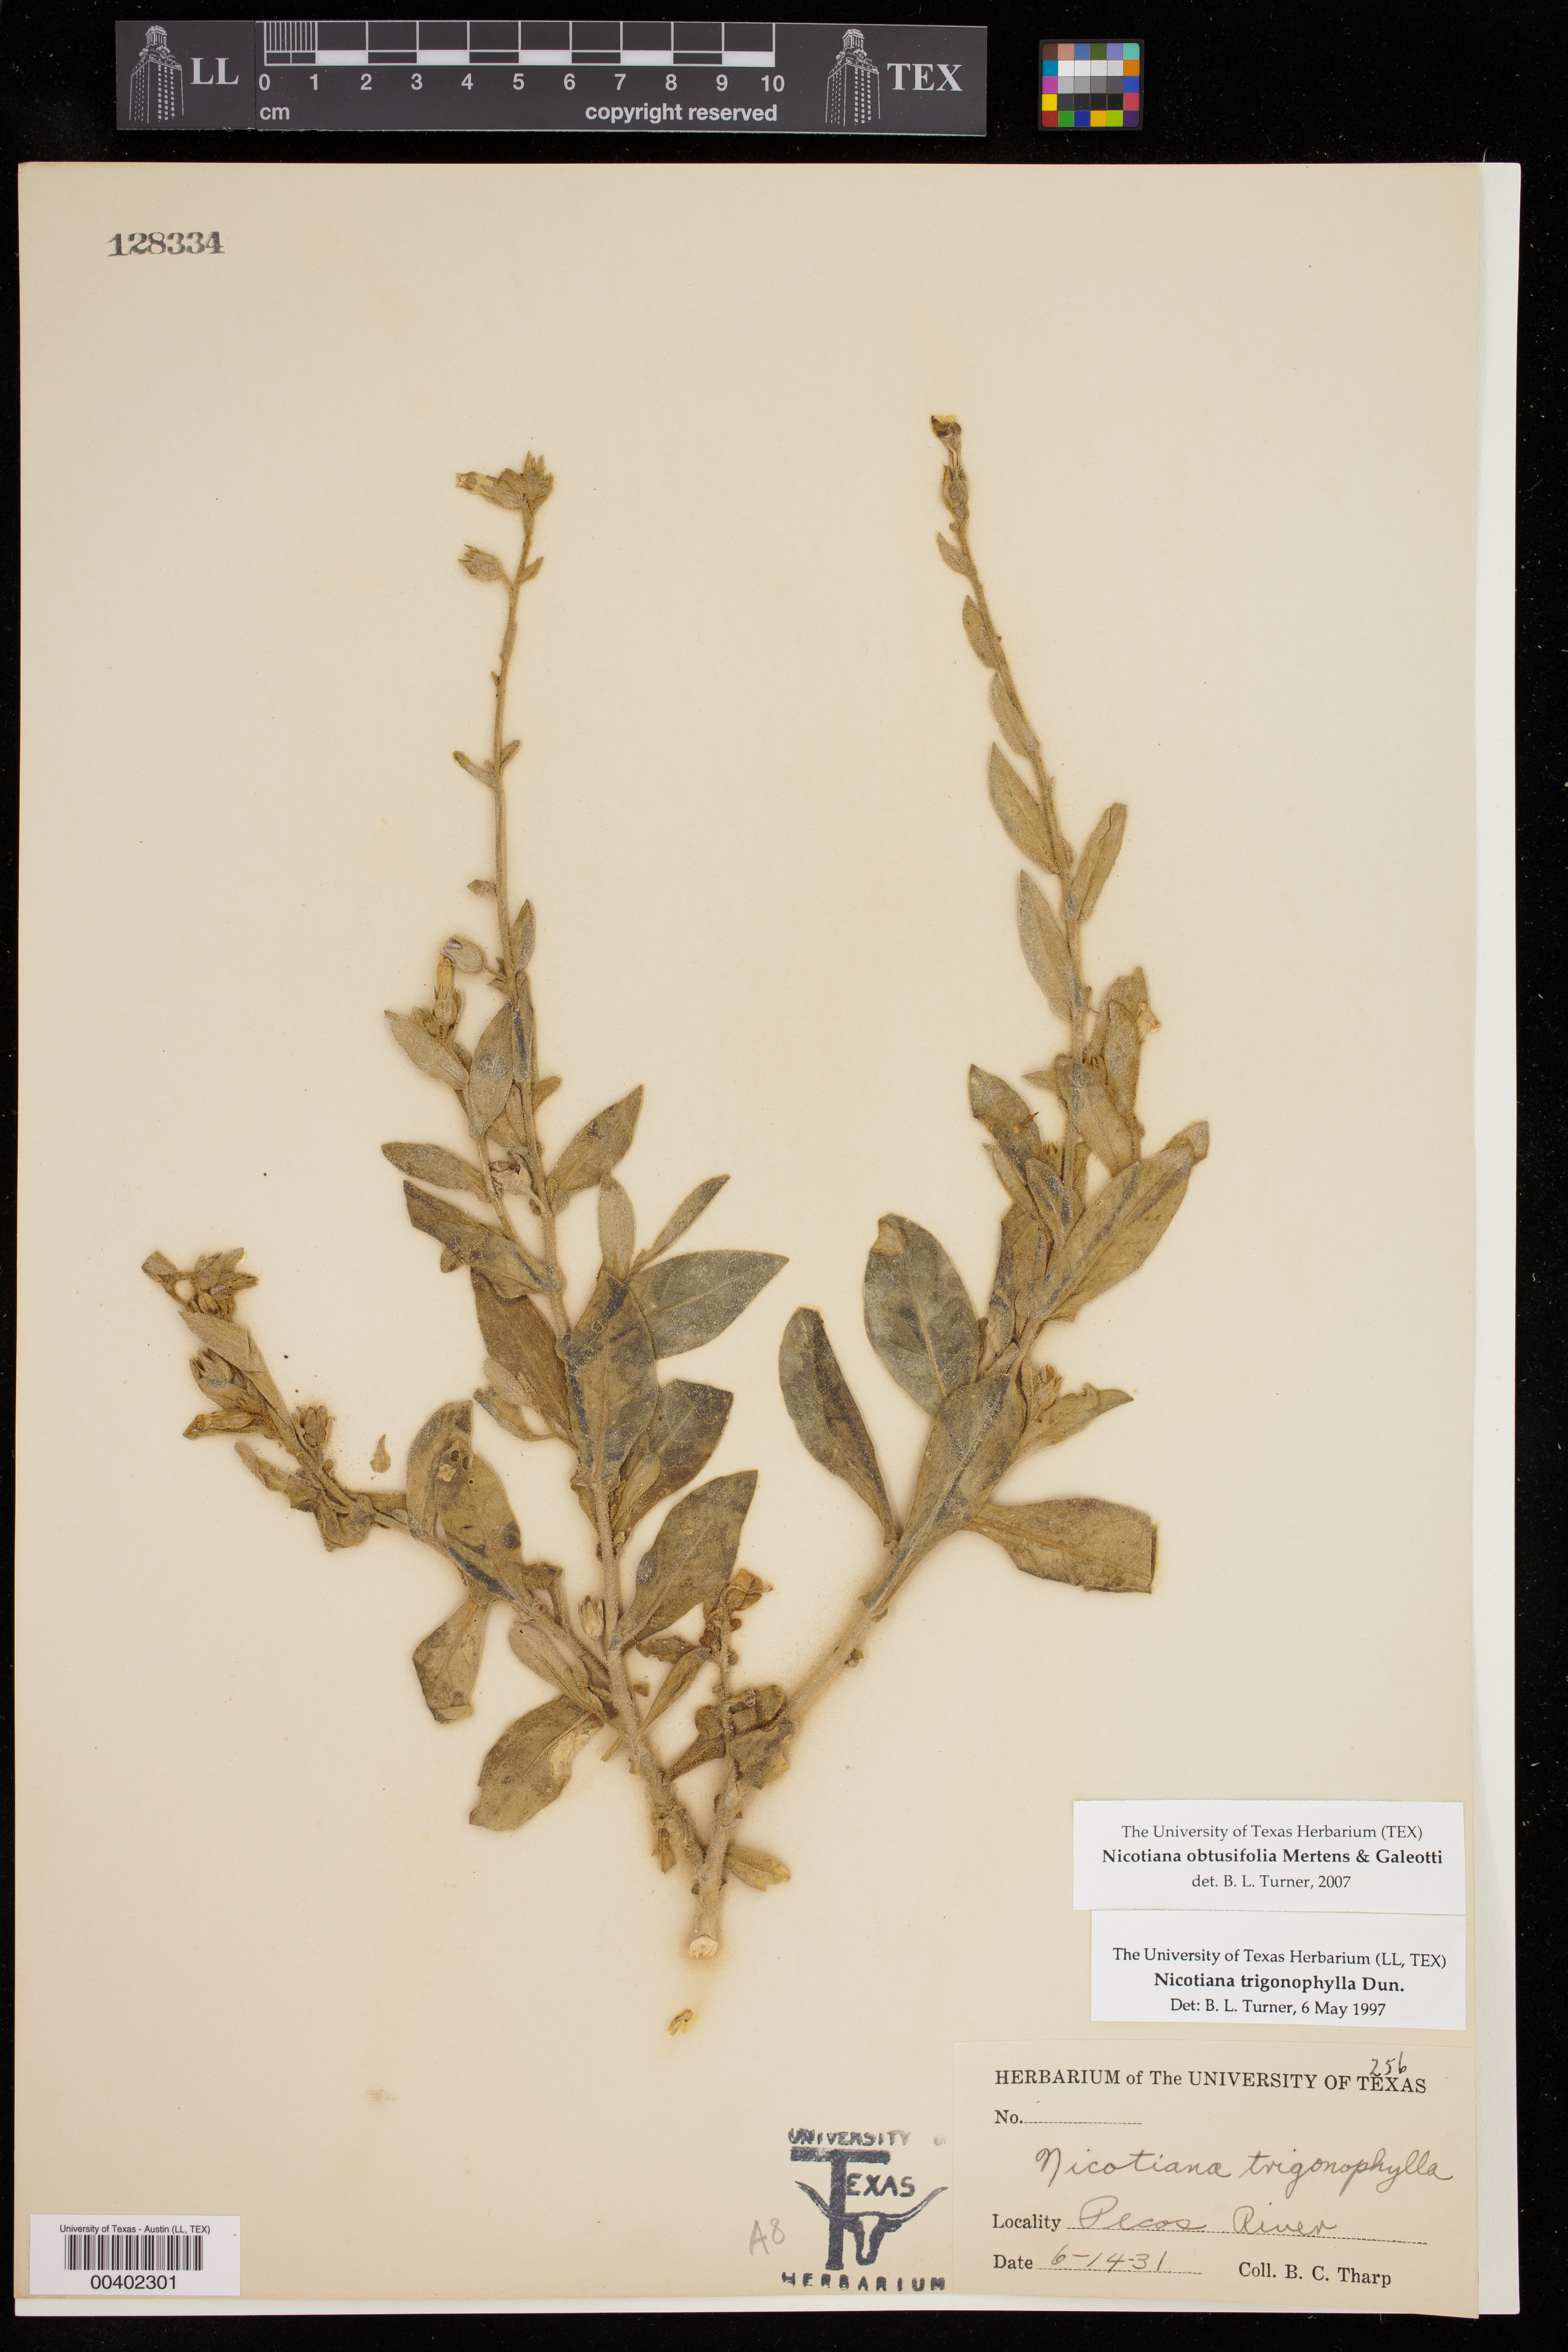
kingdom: Plantae
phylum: Tracheophyta
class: Magnoliopsida
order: Solanales
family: Solanaceae
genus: Nicotiana
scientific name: Nicotiana obtusifolia
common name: Desert tobacco
